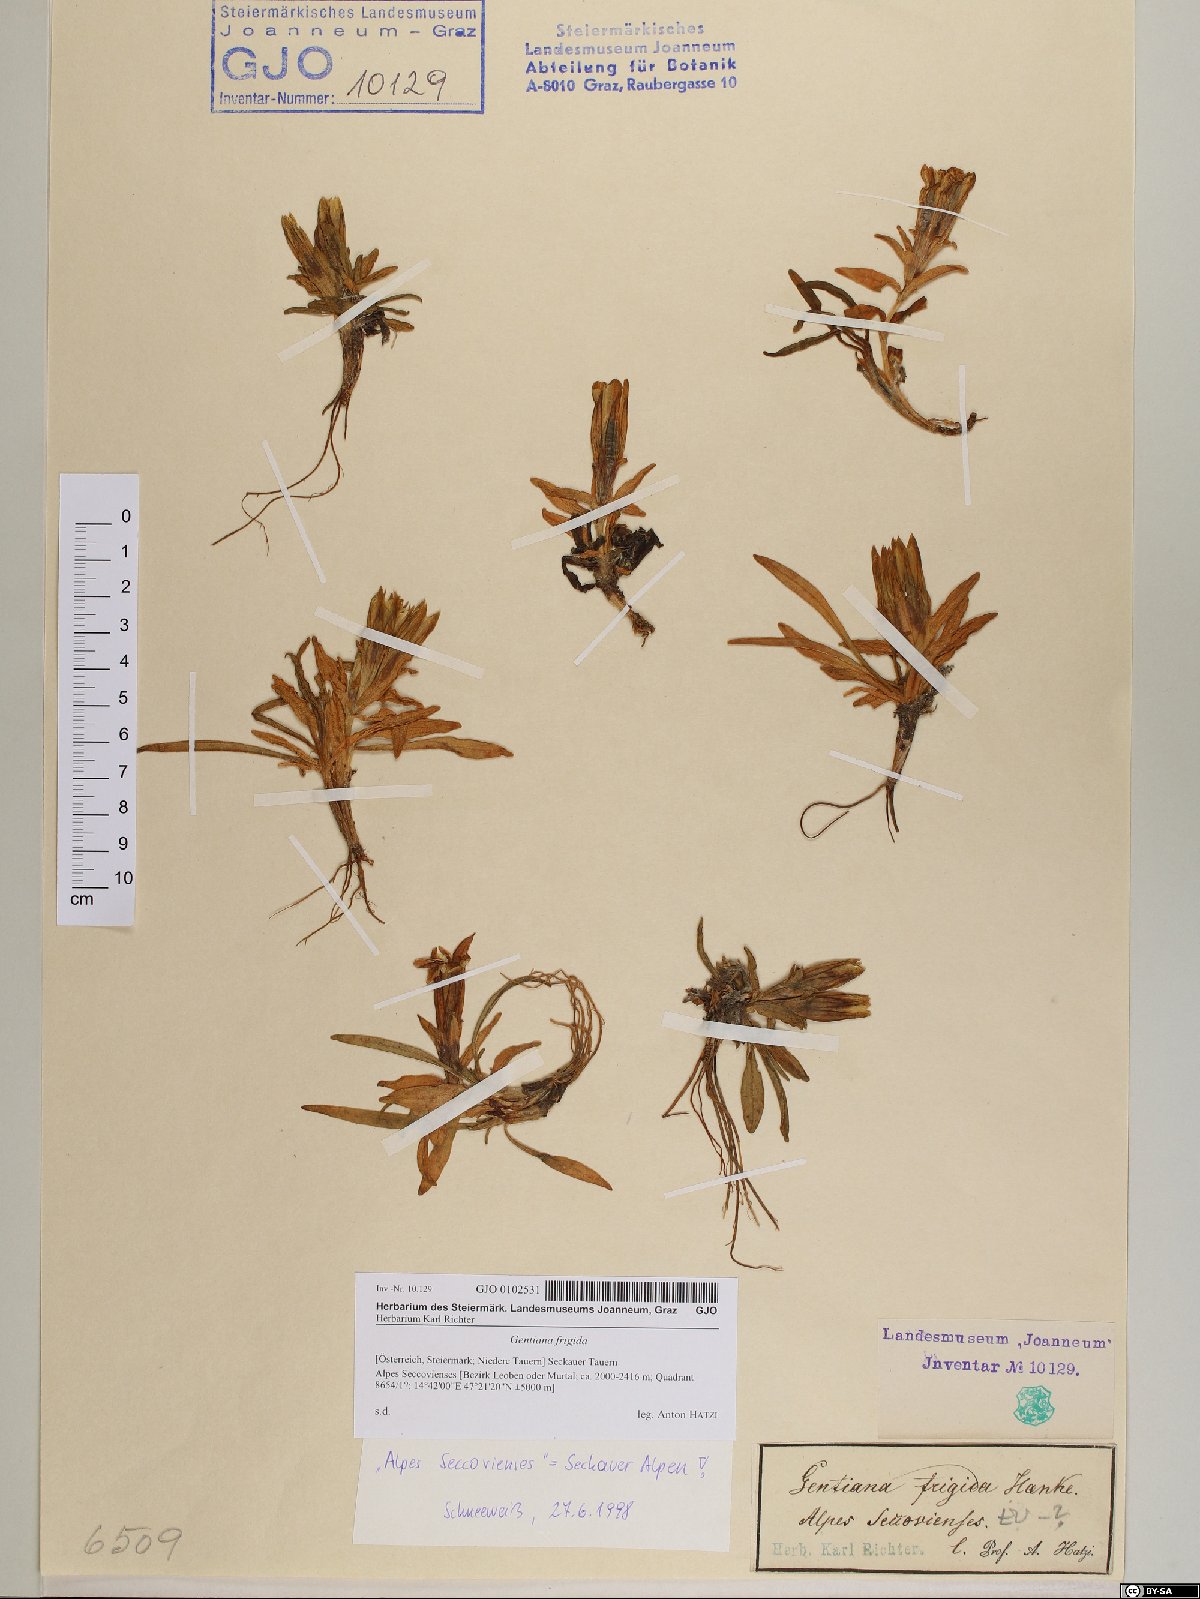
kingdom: Plantae
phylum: Tracheophyta
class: Magnoliopsida
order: Gentianales
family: Gentianaceae
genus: Gentiana
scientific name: Gentiana frigida
